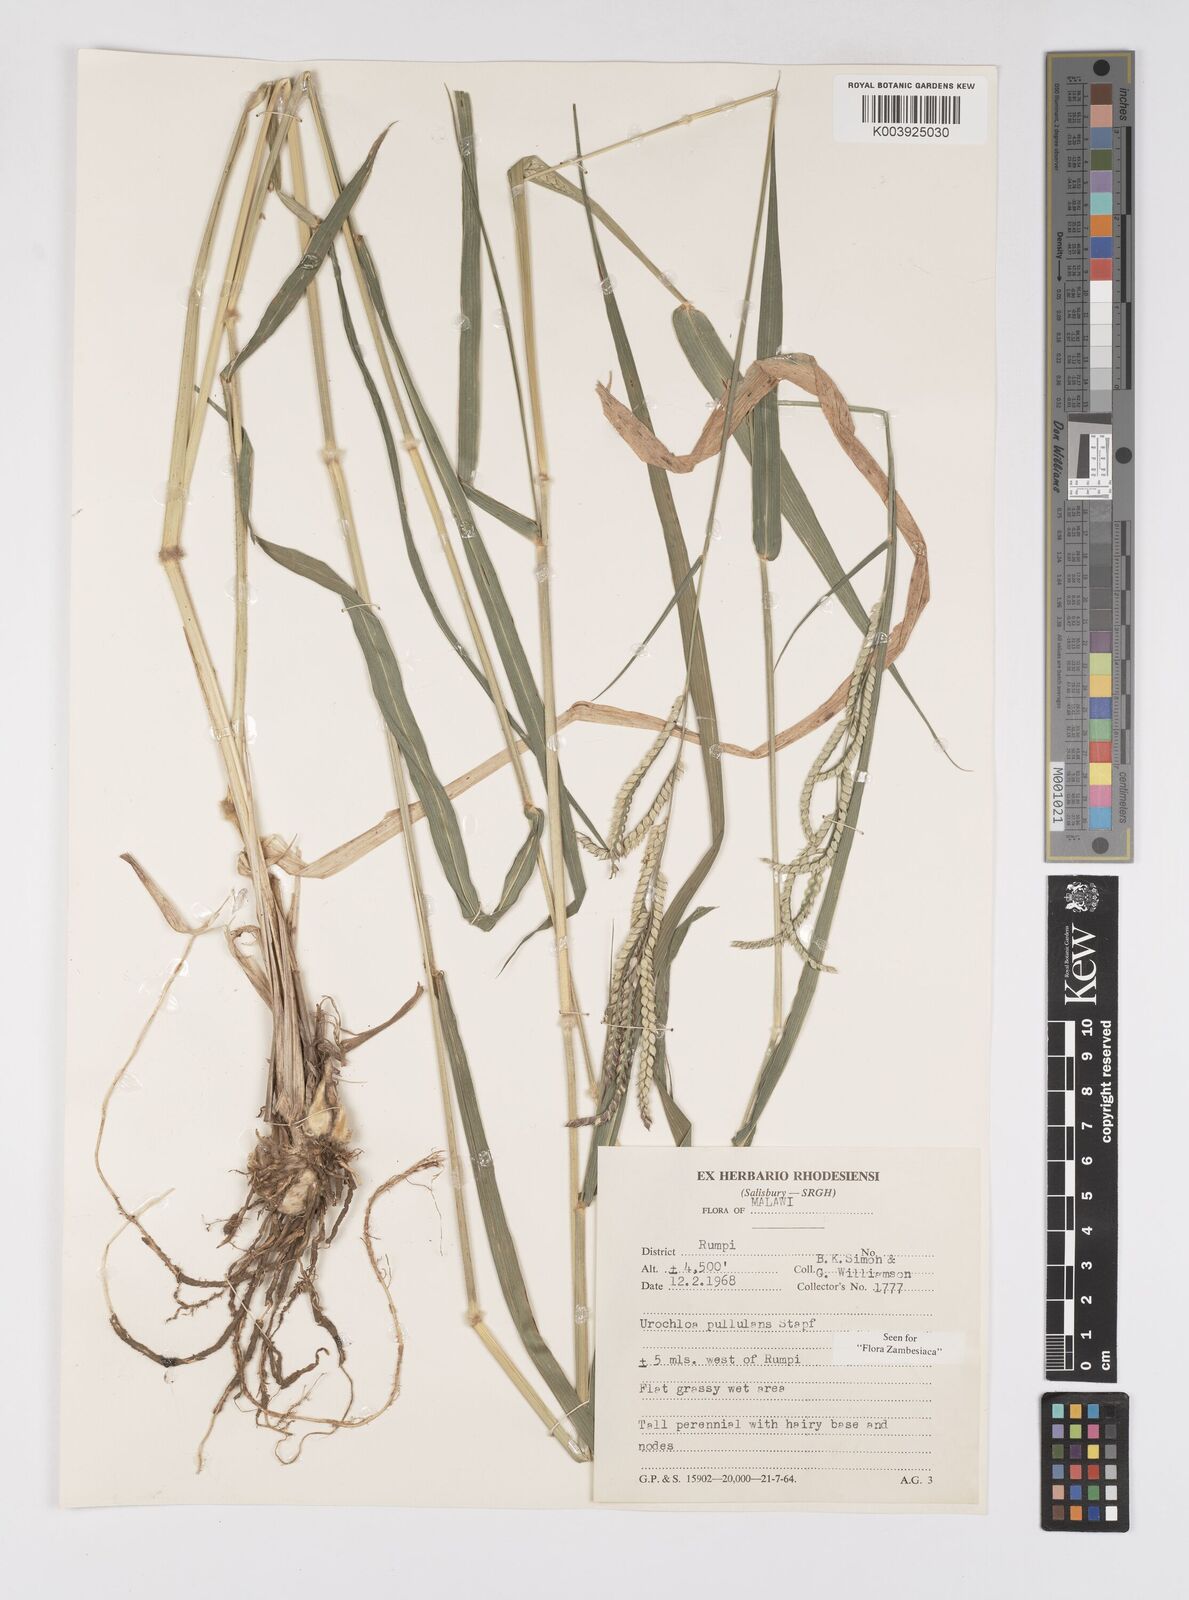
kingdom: Plantae
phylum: Tracheophyta
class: Liliopsida
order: Poales
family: Poaceae
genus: Urochloa
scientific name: Urochloa trichopus
